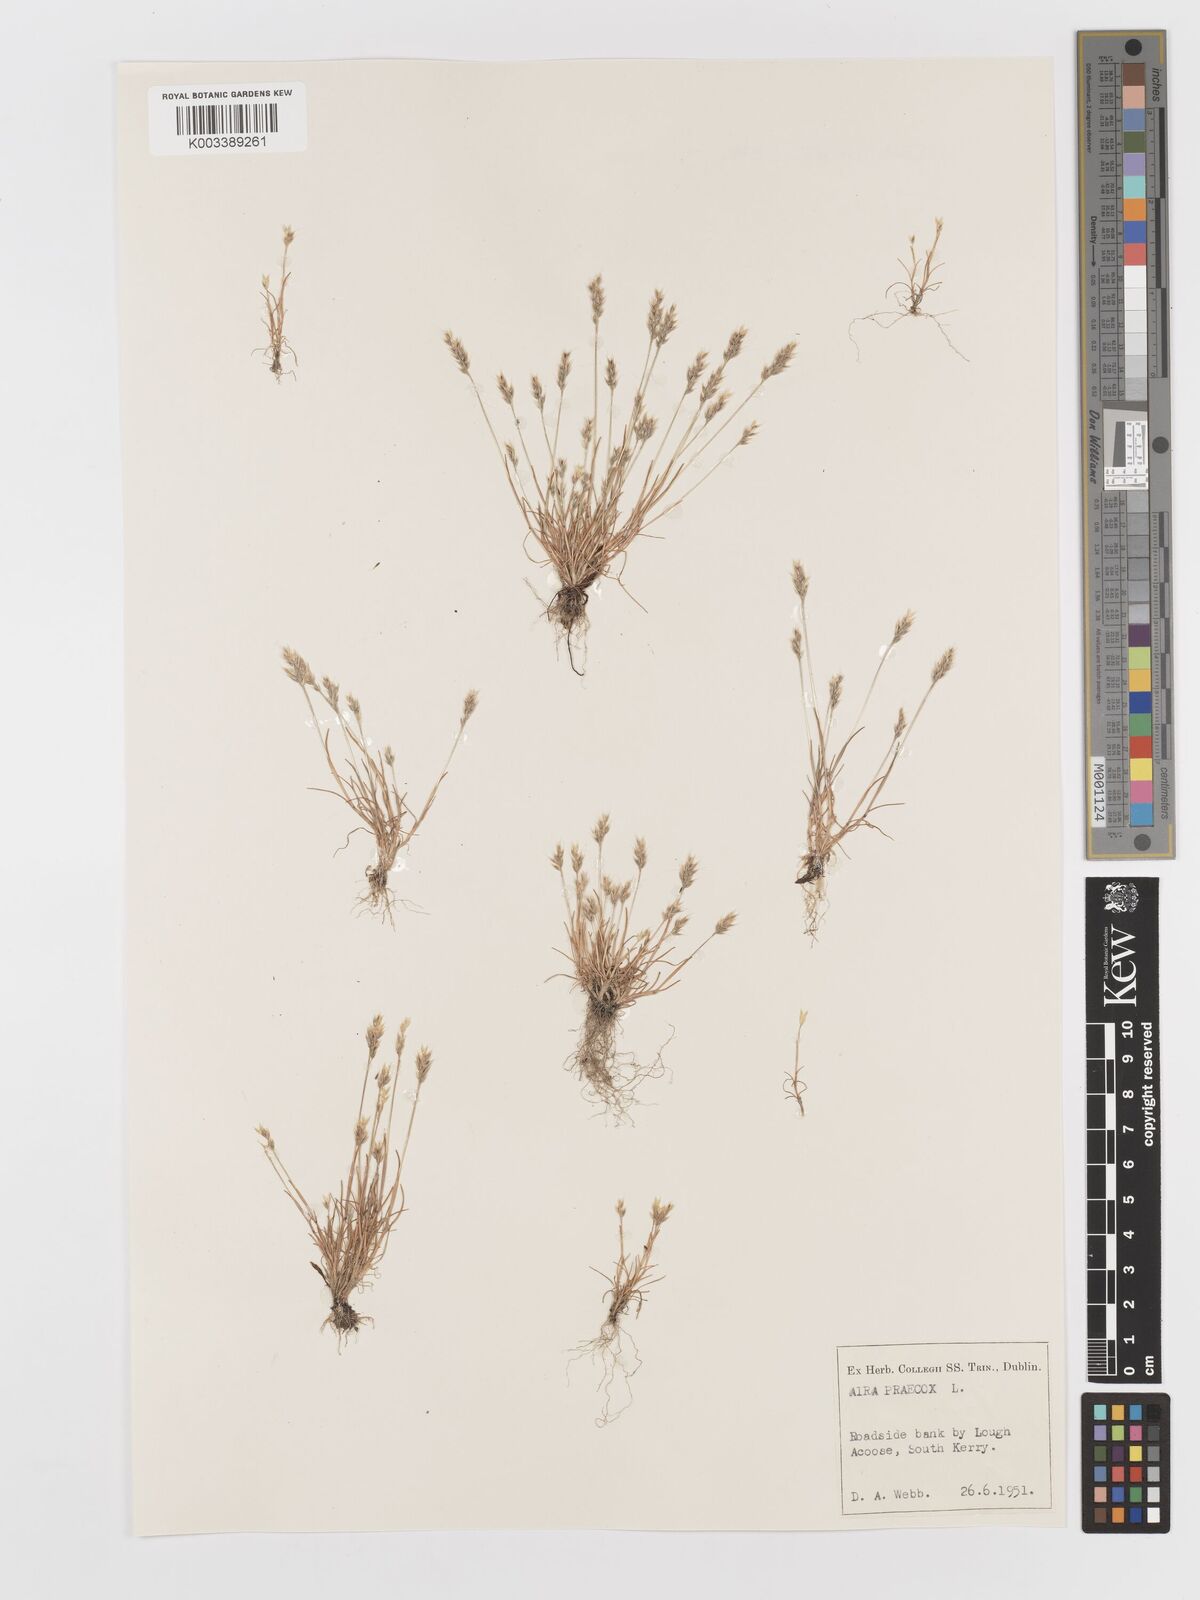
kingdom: Plantae
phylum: Tracheophyta
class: Liliopsida
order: Poales
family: Poaceae
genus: Aira
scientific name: Aira praecox
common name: Early hair-grass
